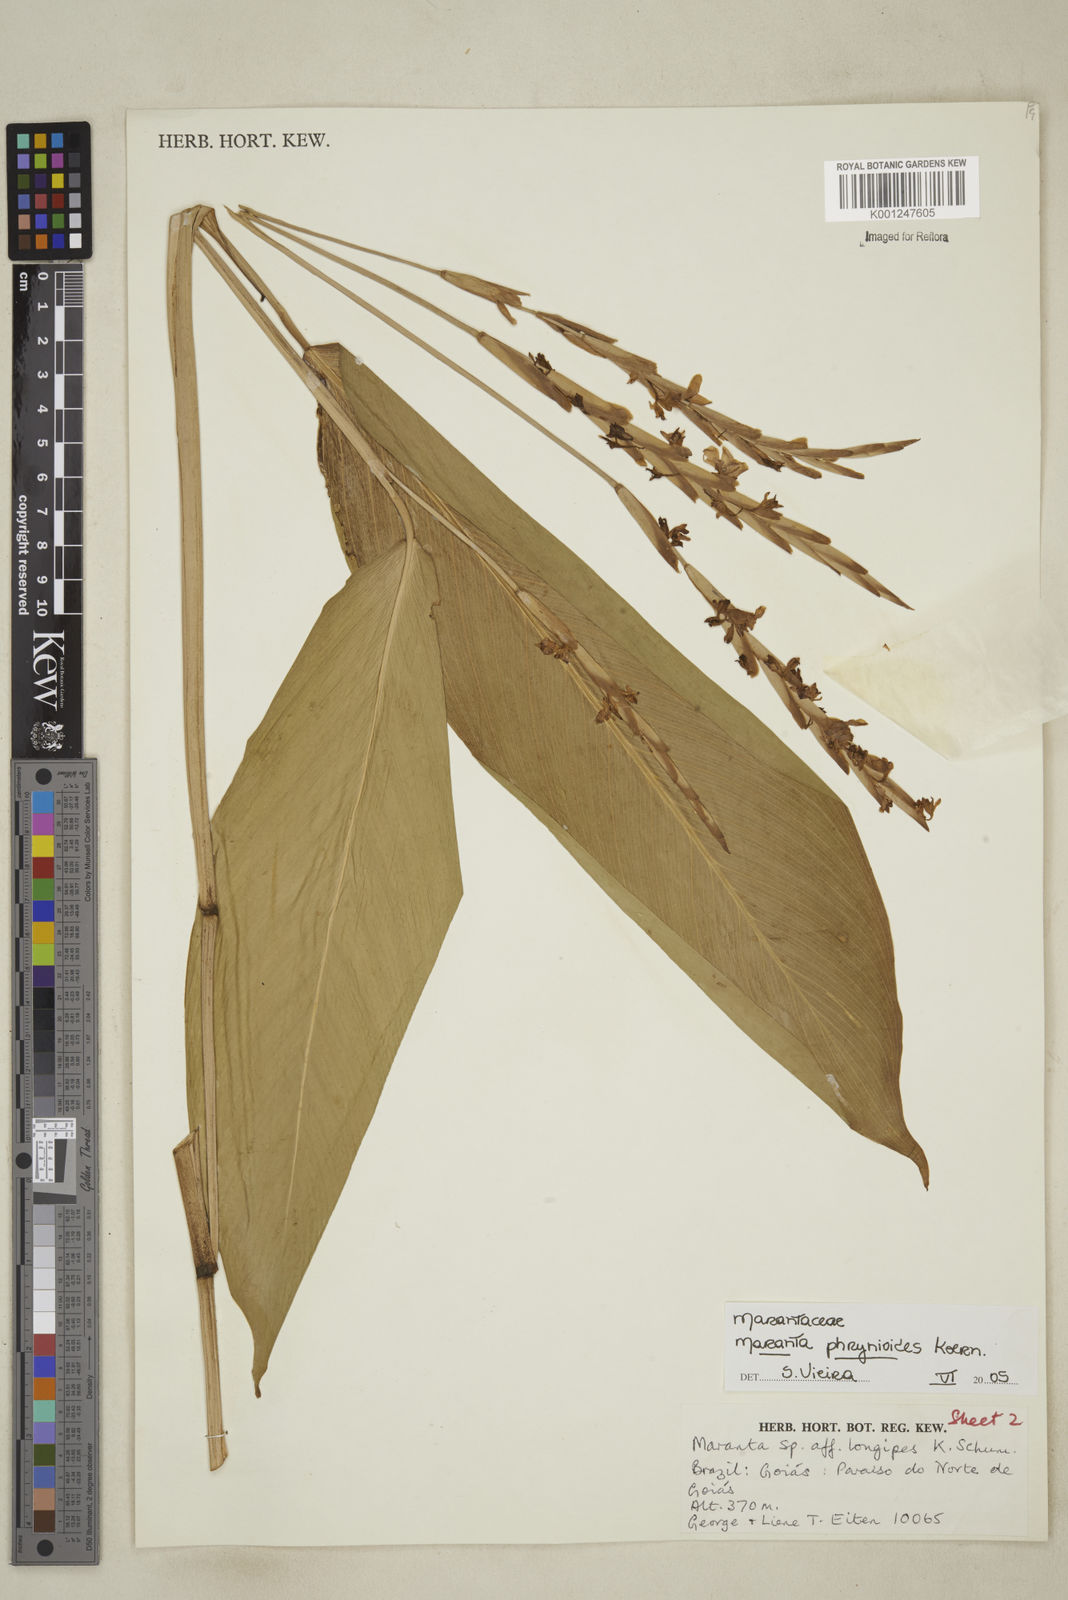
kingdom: Plantae
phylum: Tracheophyta
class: Liliopsida
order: Zingiberales
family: Marantaceae
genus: Maranta
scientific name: Maranta phrynioides
